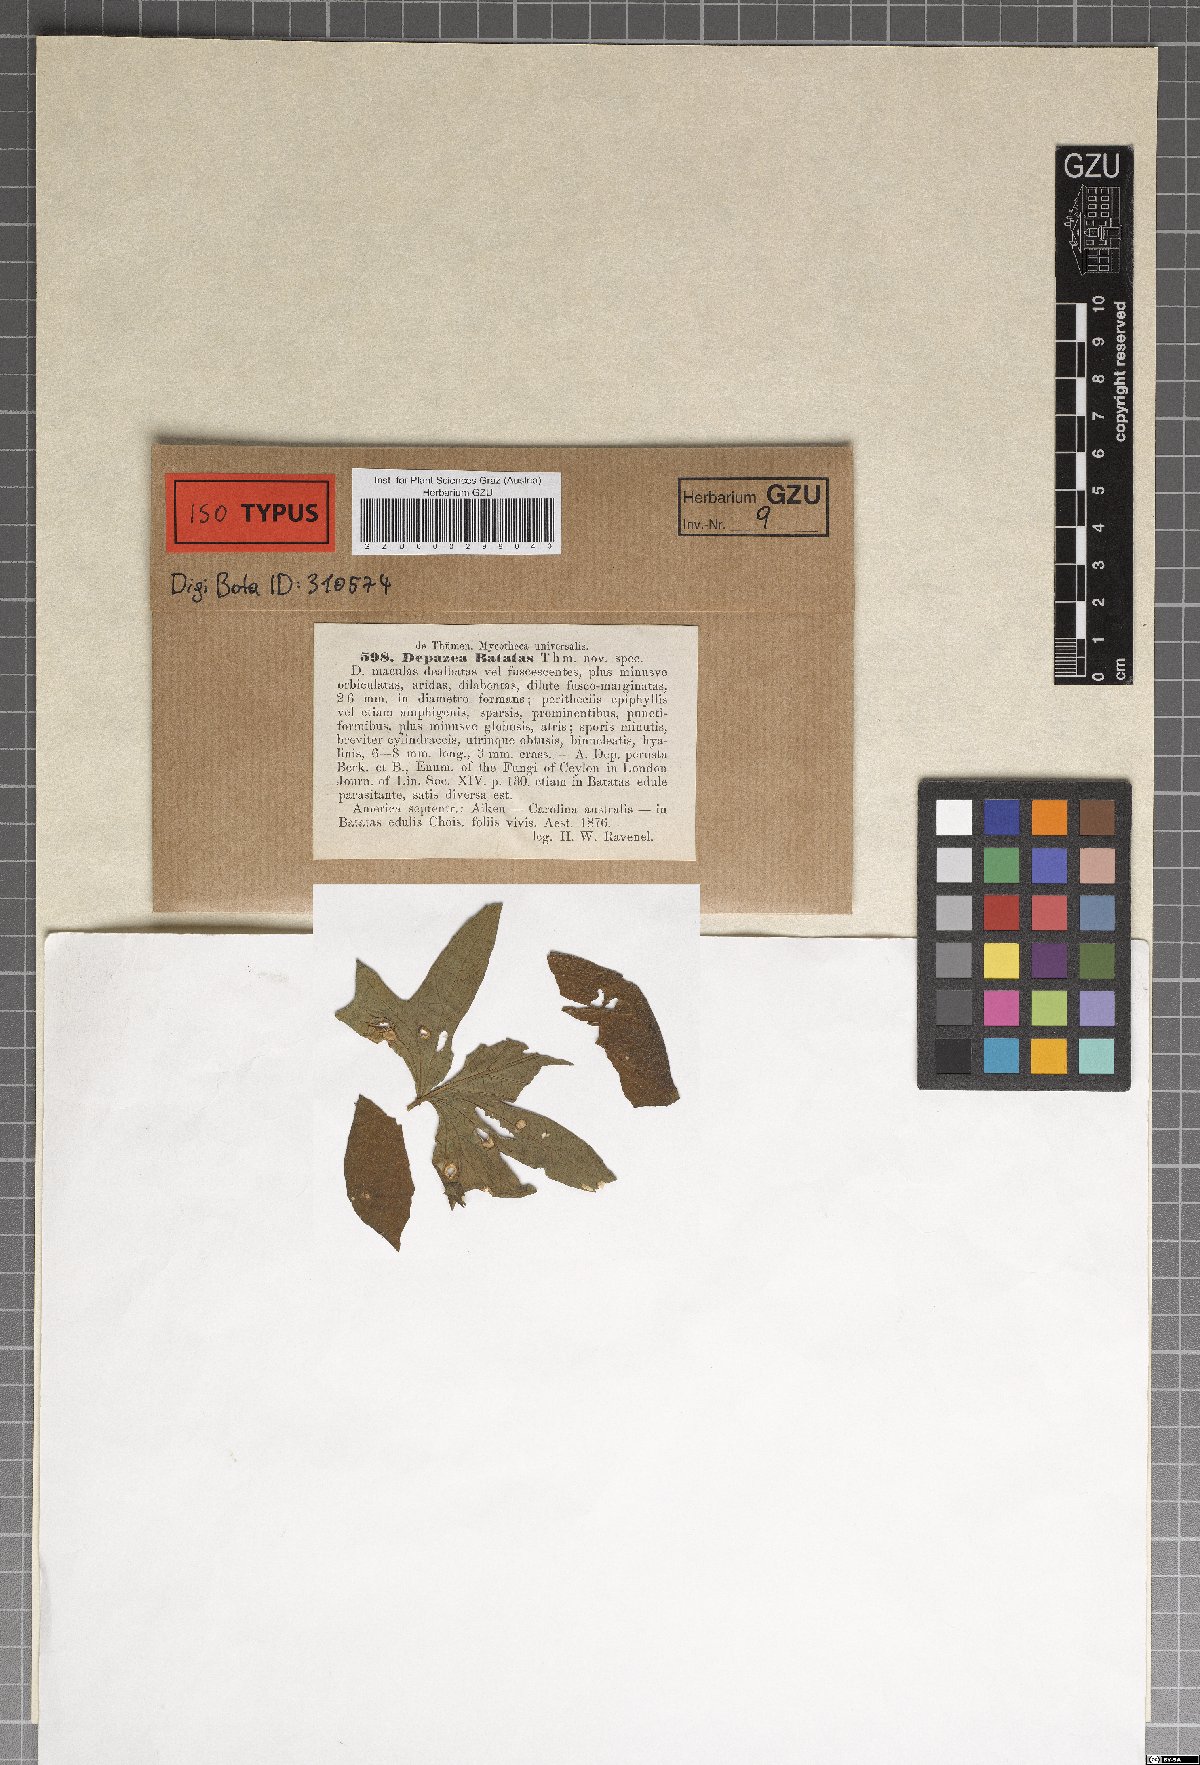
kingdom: Fungi
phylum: Ascomycota
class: Dothideomycetes
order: Botryosphaeriales
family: Phyllostictaceae
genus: Phyllosticta
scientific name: Phyllosticta batatas
